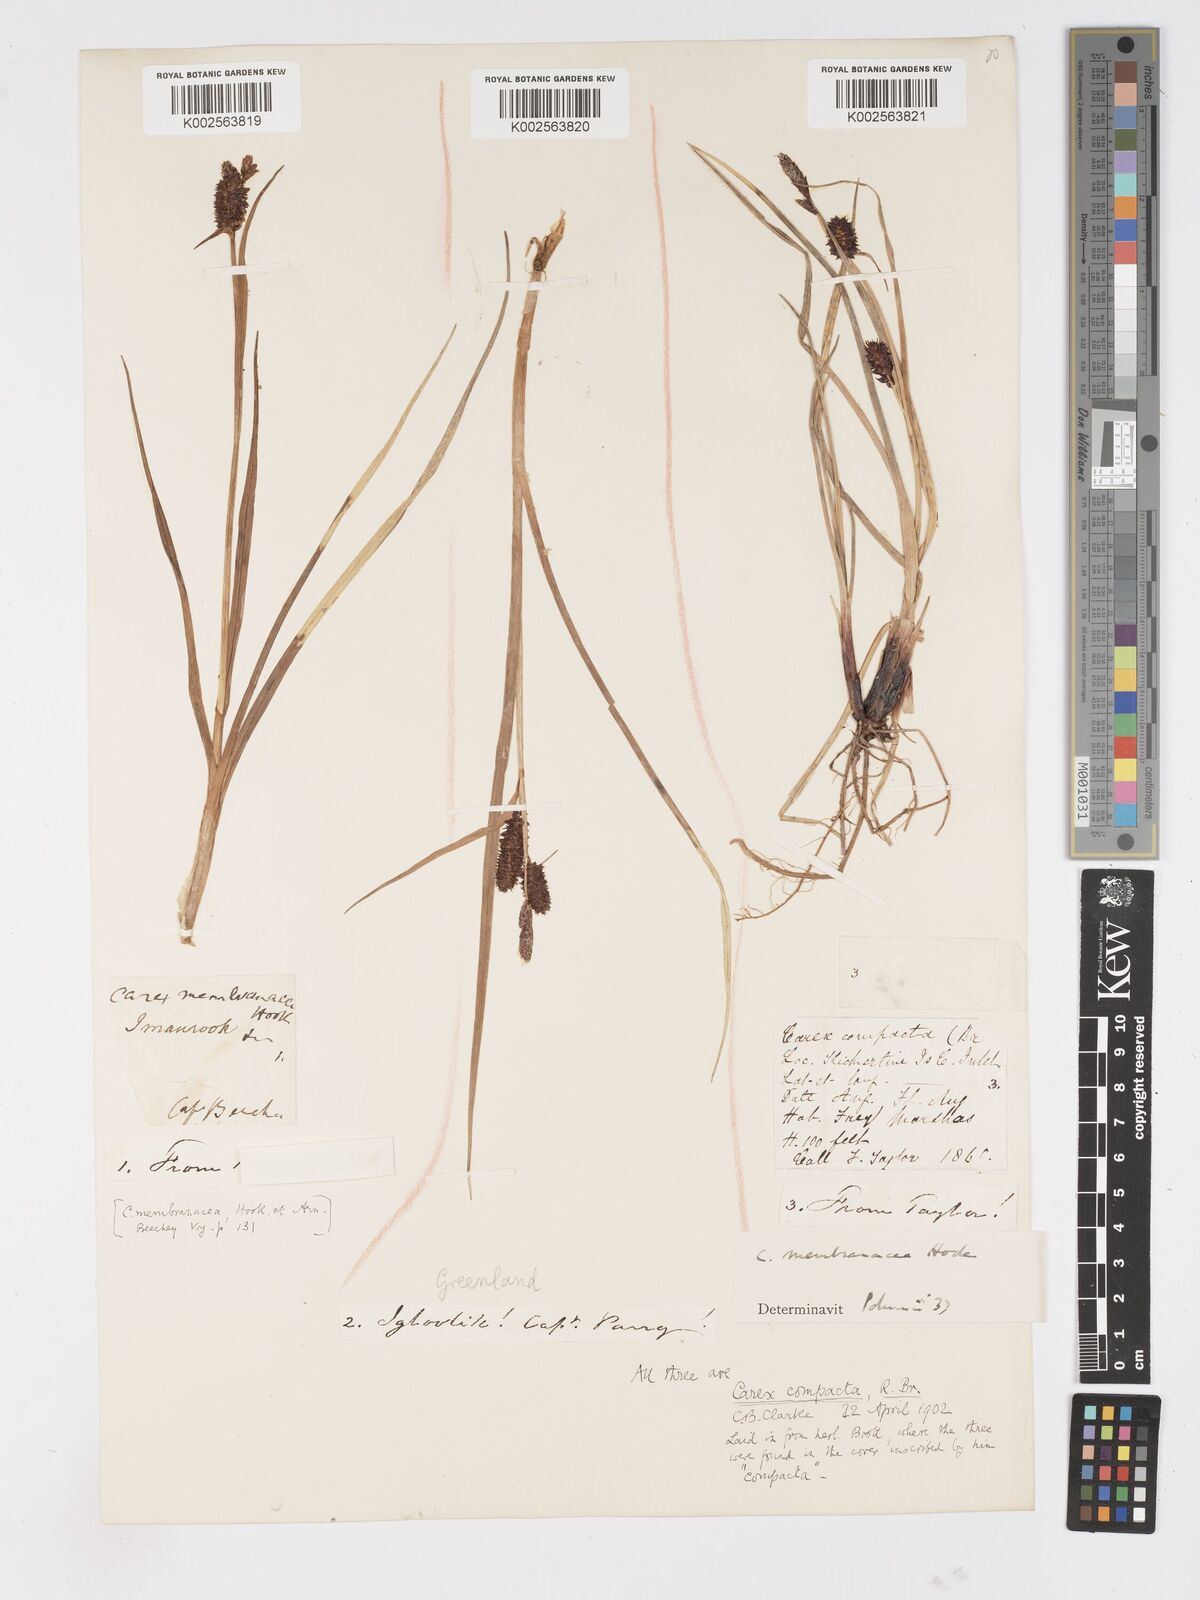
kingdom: Plantae
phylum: Tracheophyta
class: Liliopsida
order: Poales
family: Cyperaceae
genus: Carex
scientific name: Carex membranacea
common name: Fragile sedge
